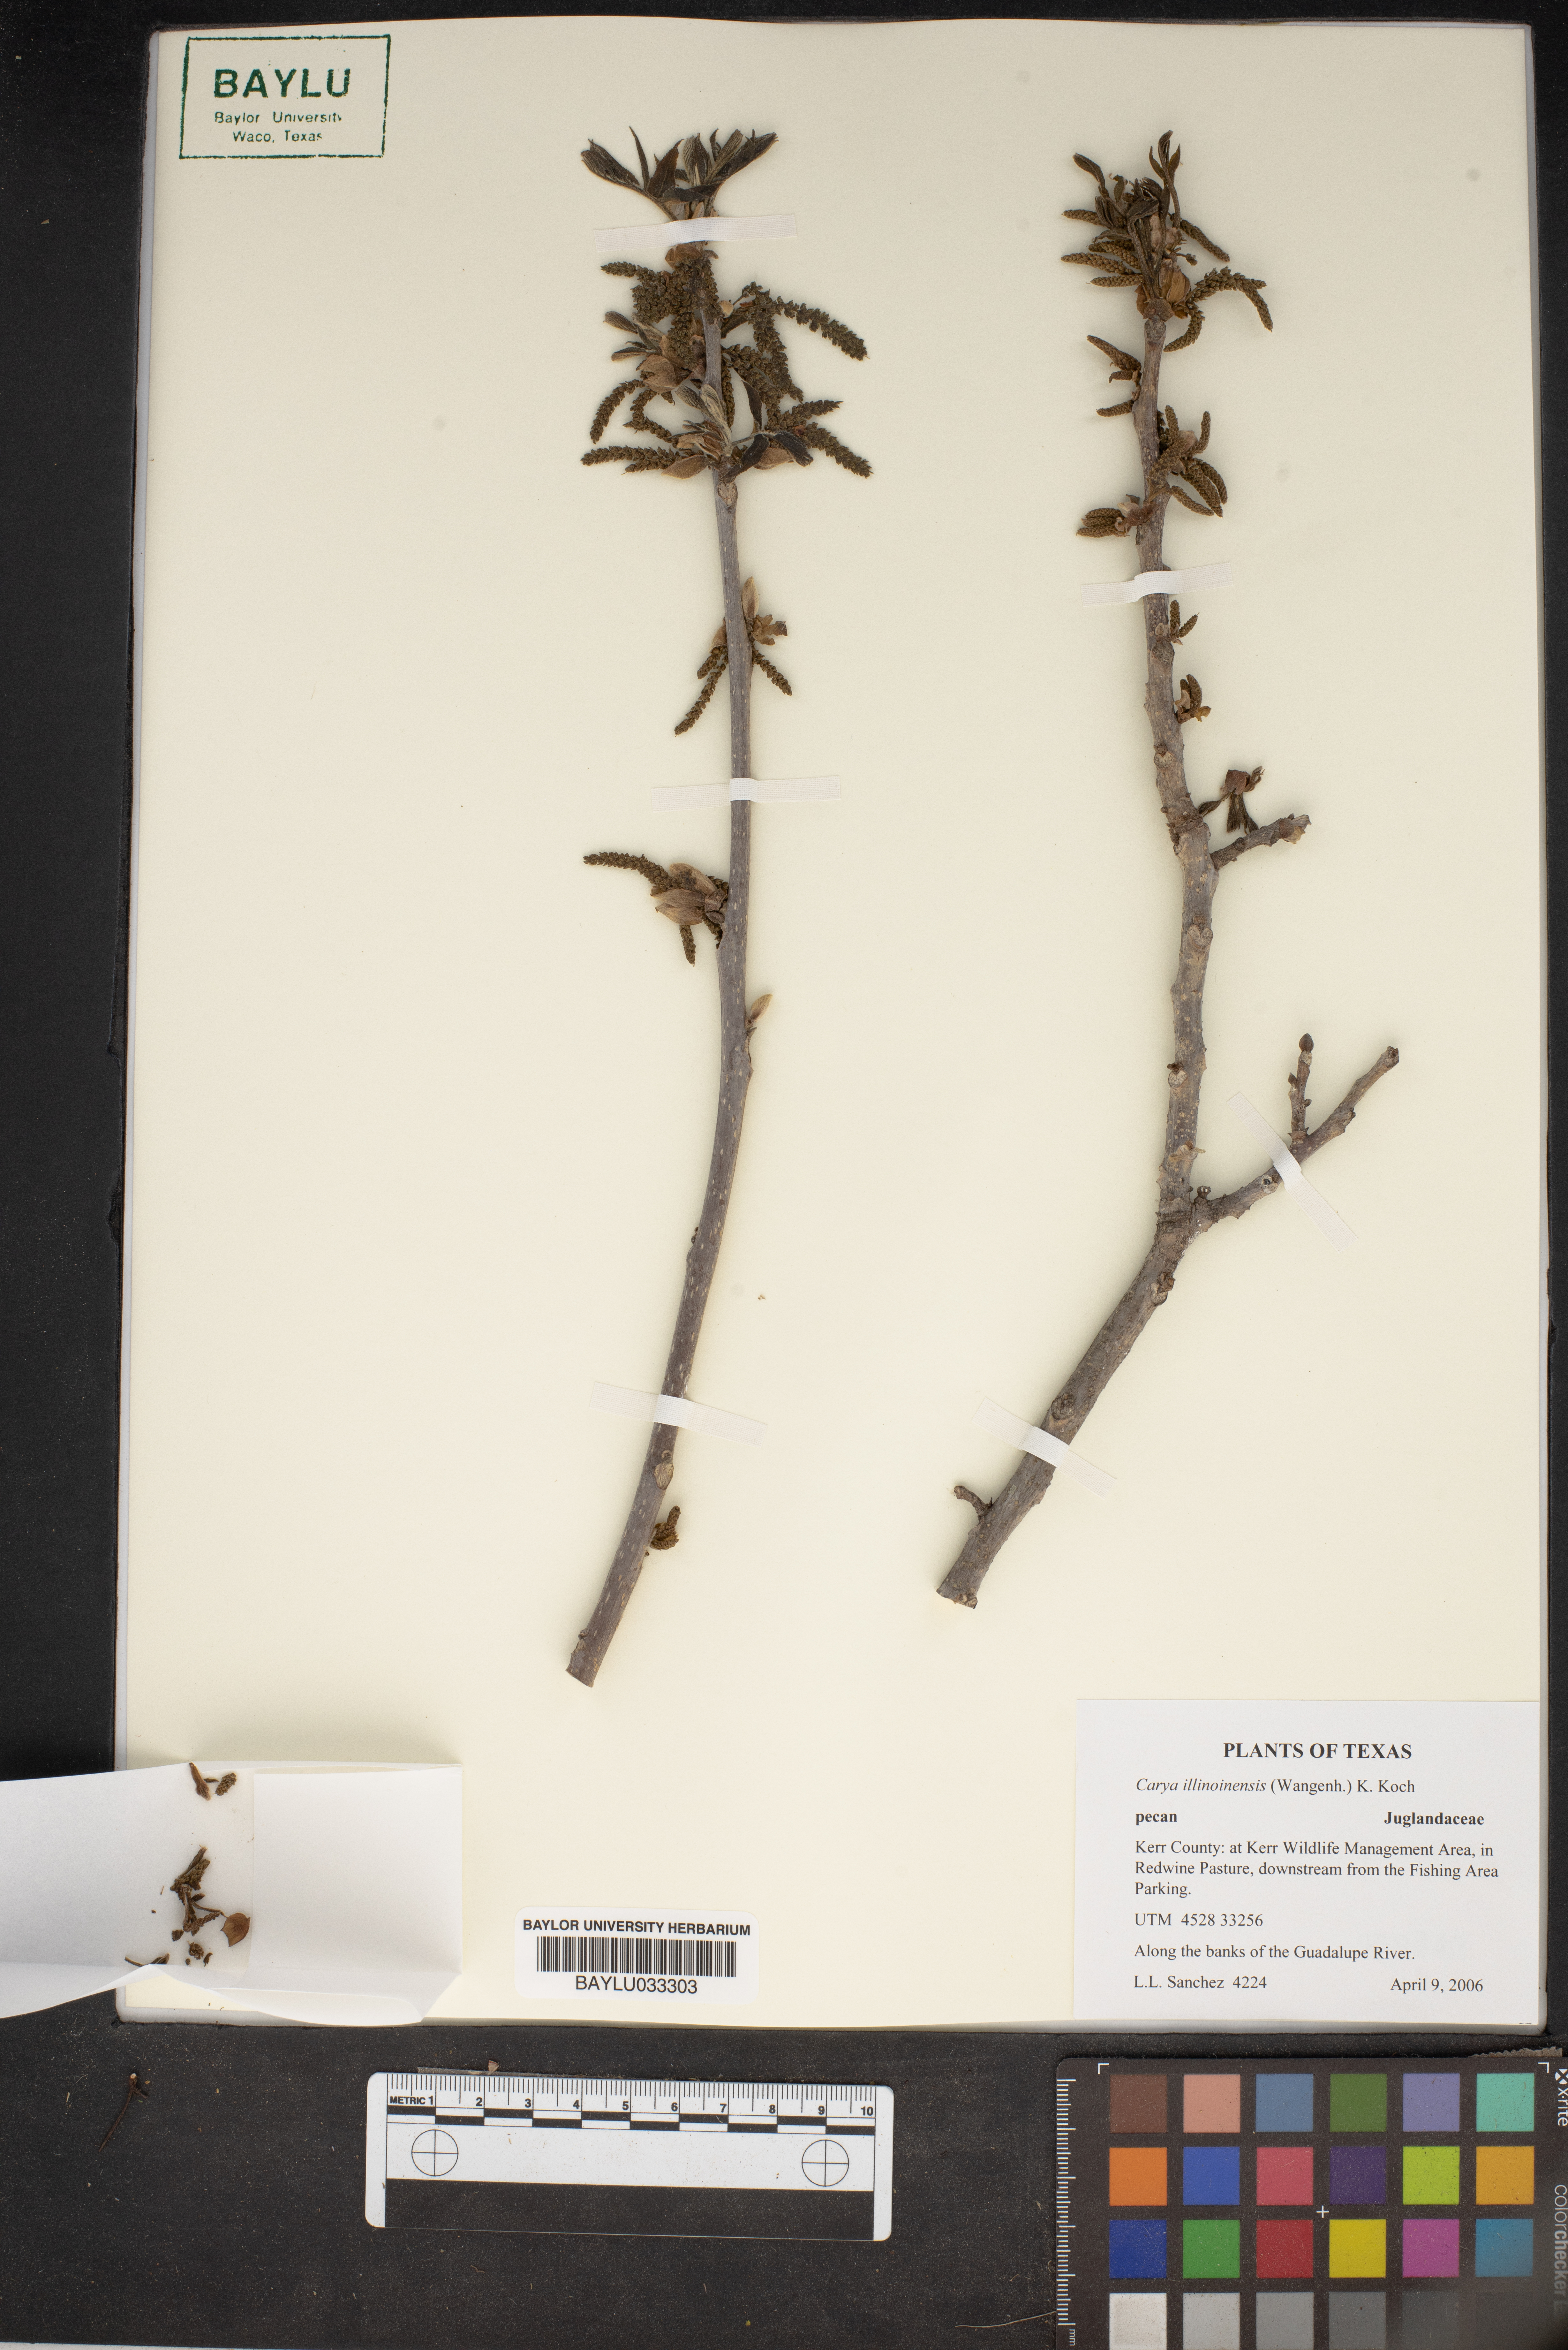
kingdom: Plantae
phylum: Tracheophyta
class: Magnoliopsida
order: Fagales
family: Juglandaceae
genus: Carya
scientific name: Carya illinoinensis
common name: Pecan
